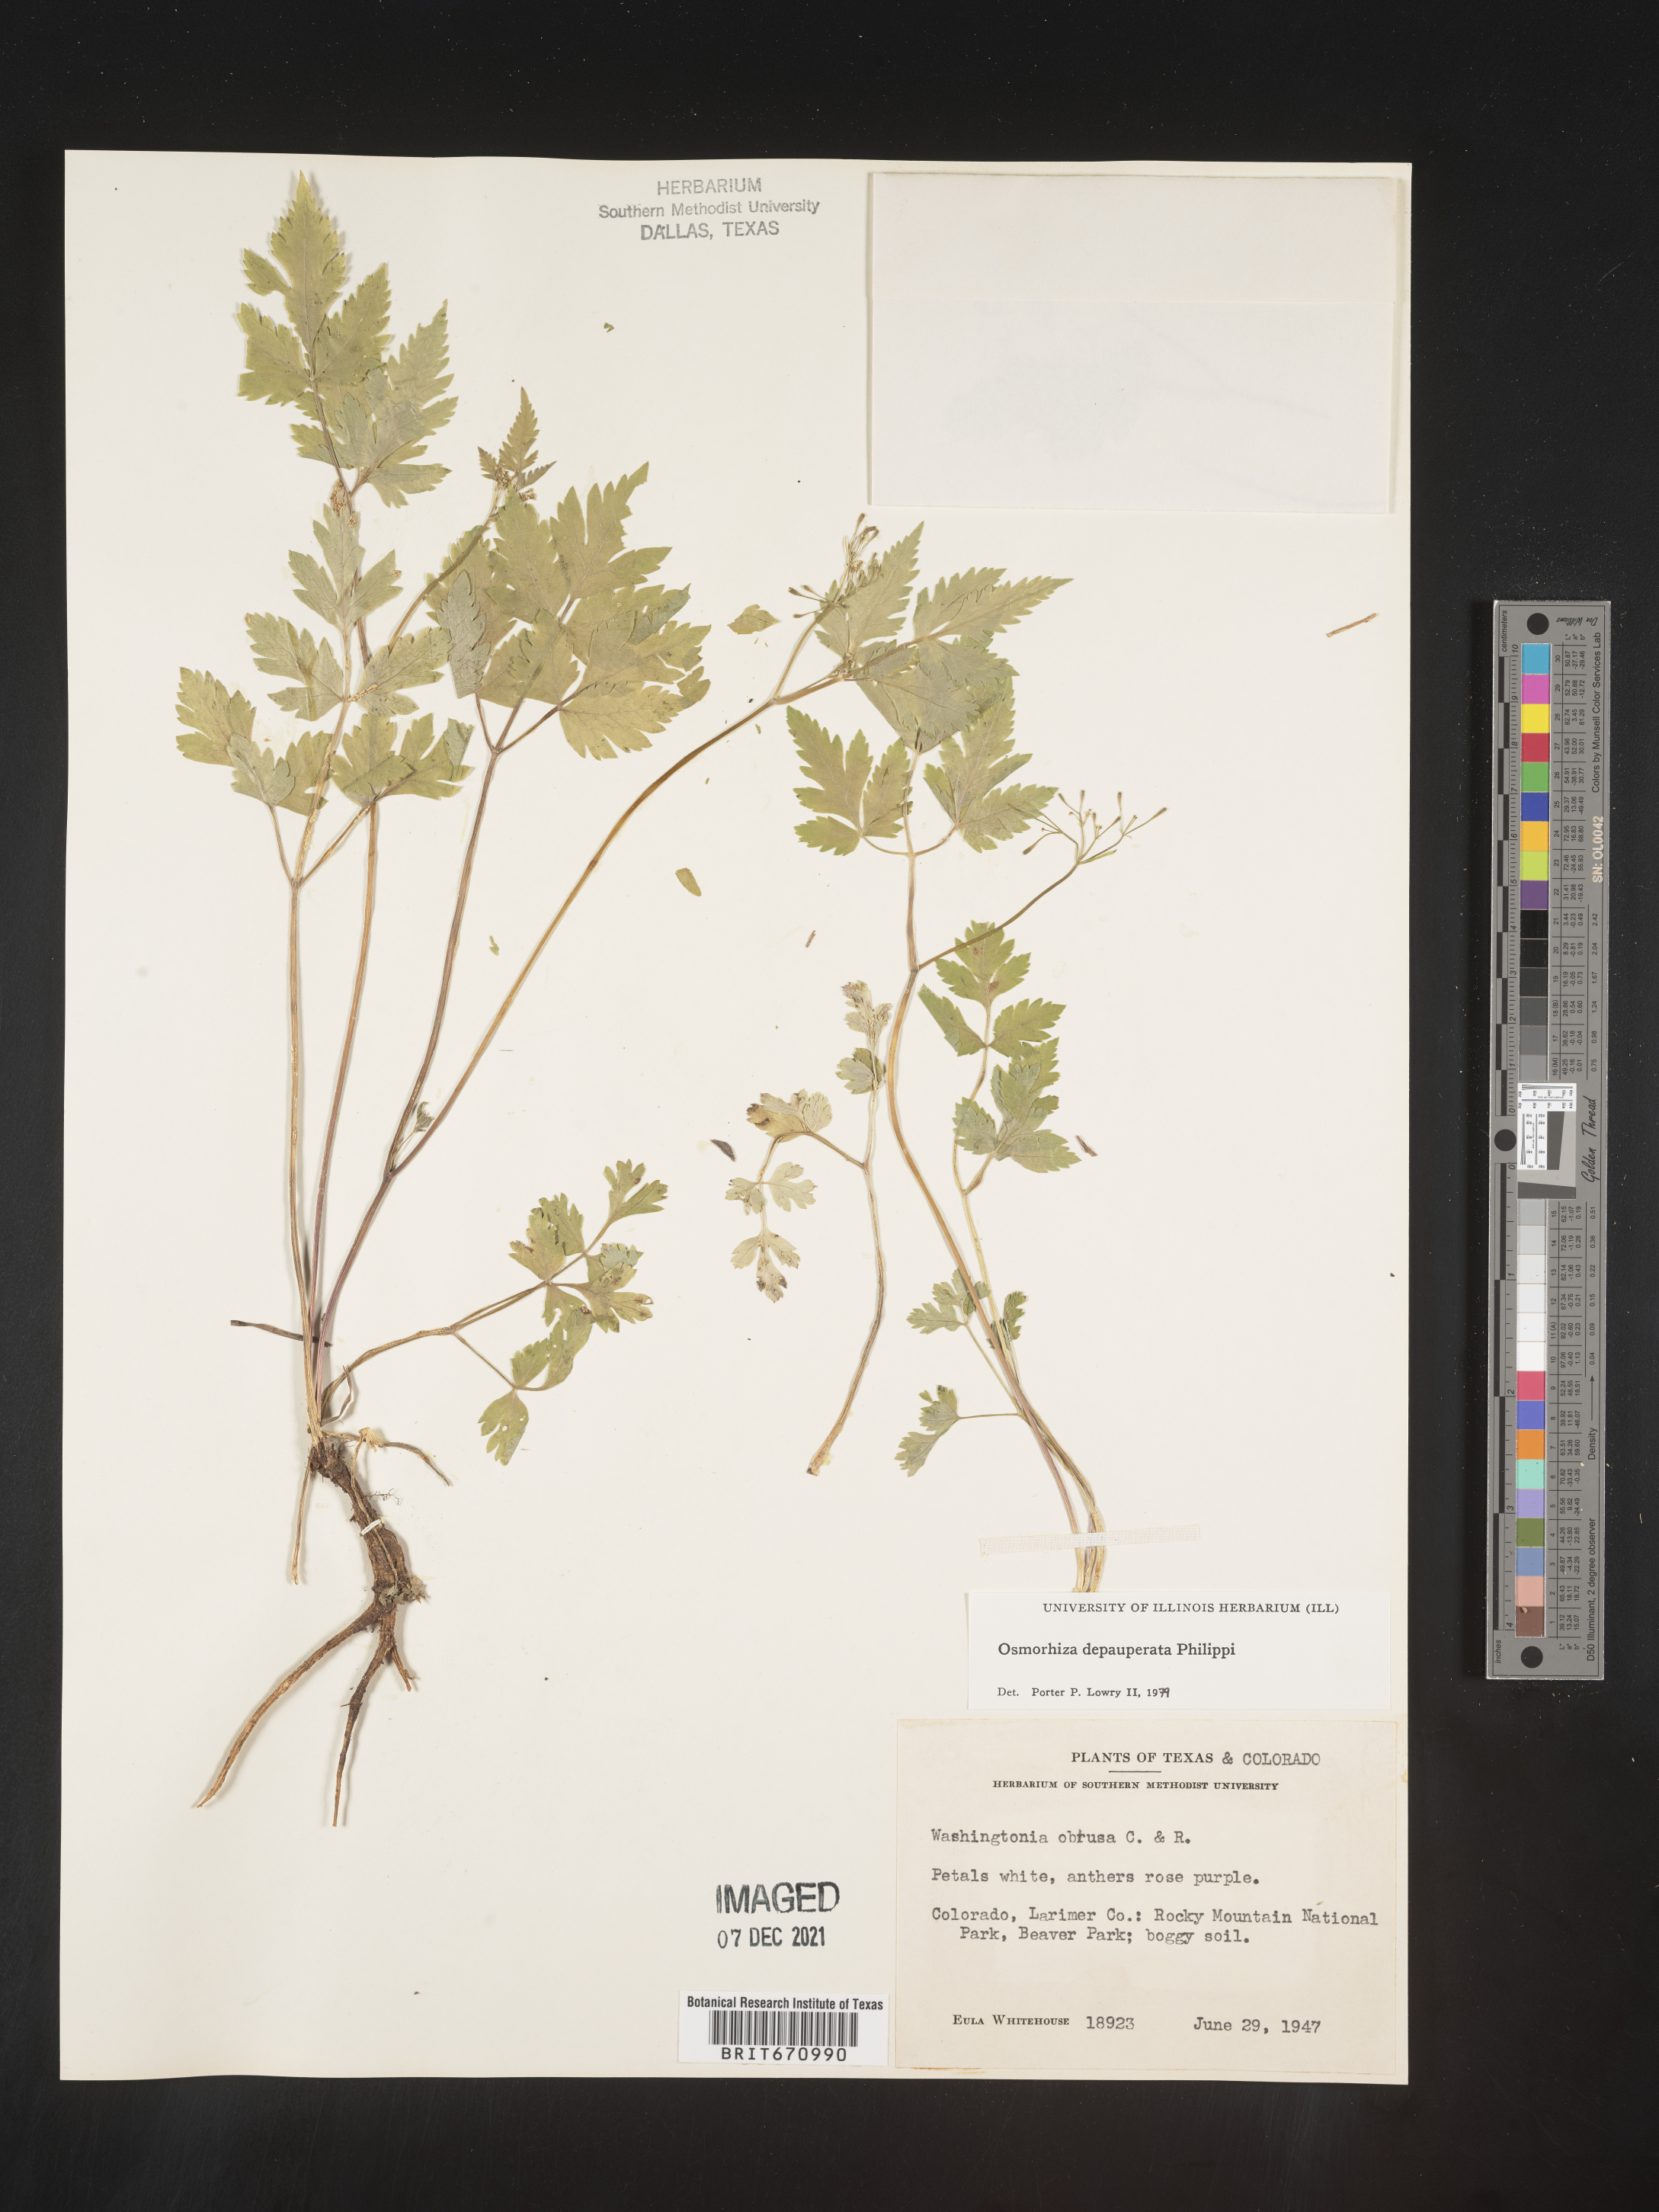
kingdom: Plantae
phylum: Tracheophyta
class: Magnoliopsida
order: Apiales
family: Apiaceae
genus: Osmorhiza
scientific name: Osmorhiza depauperata
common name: Blunt sweet cicely
